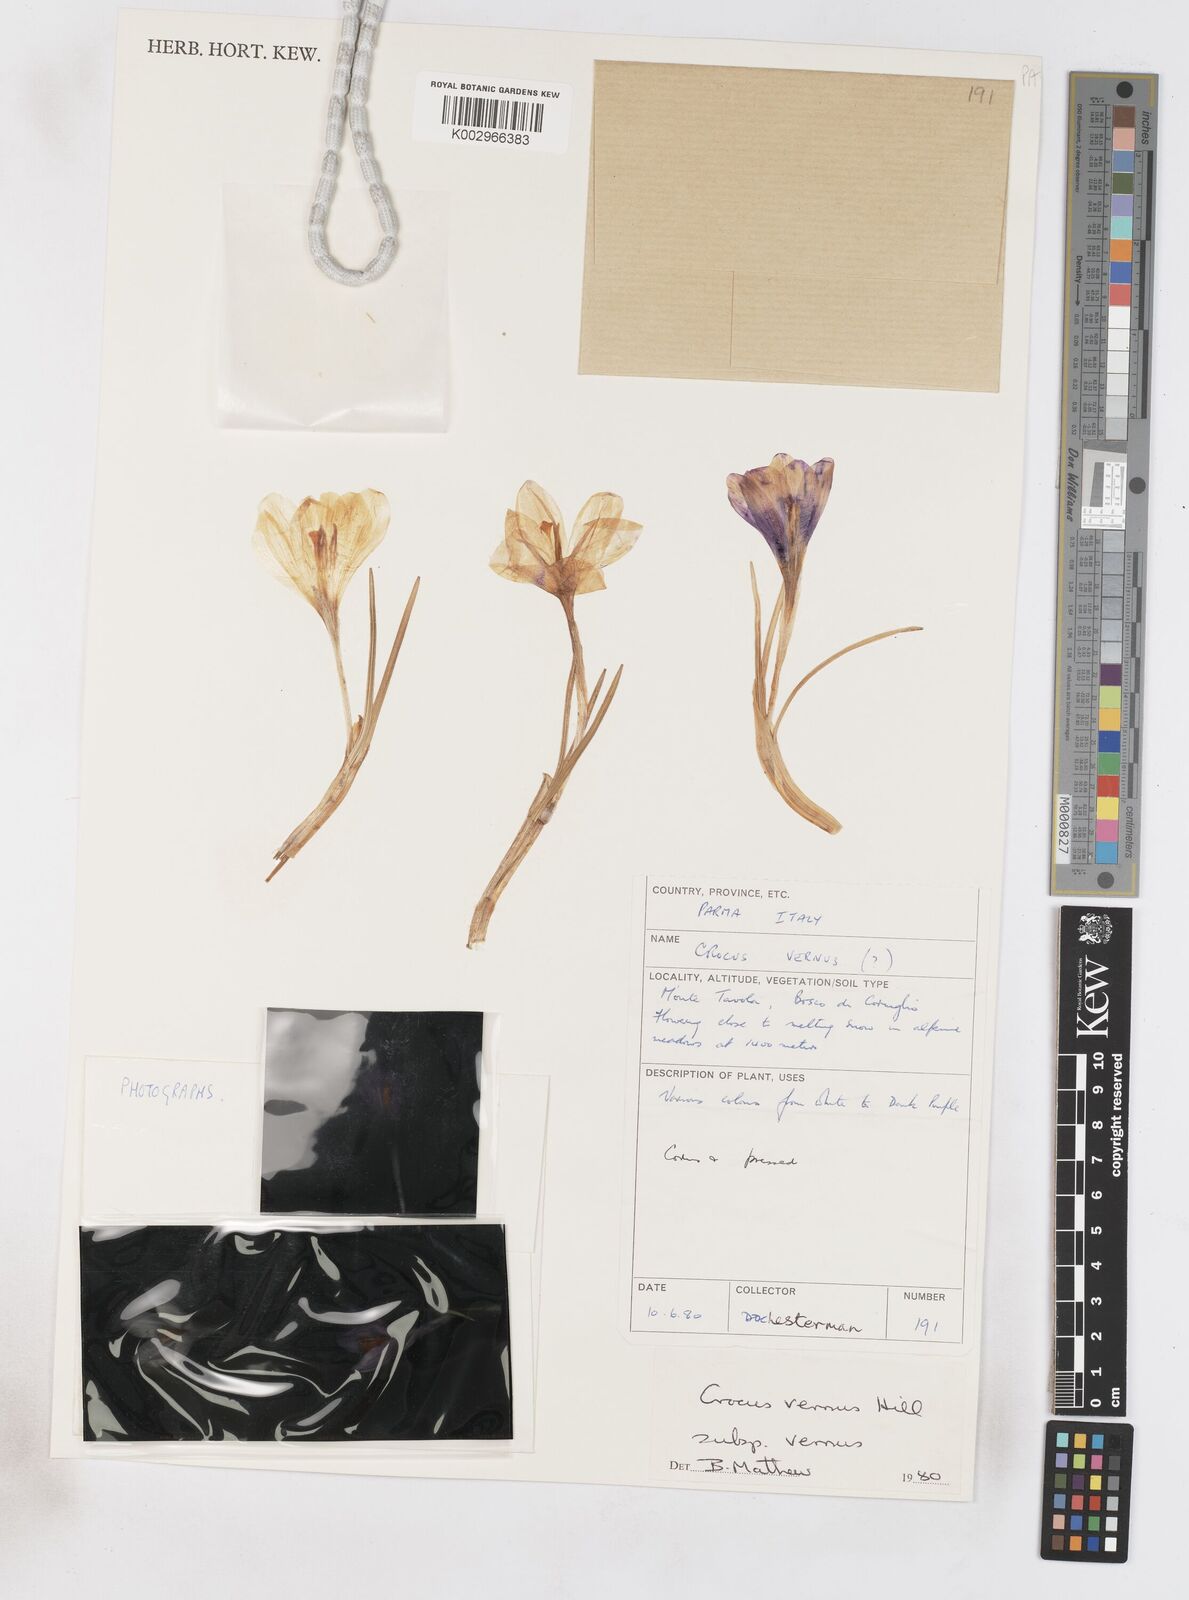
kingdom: Plantae
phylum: Tracheophyta
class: Liliopsida
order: Asparagales
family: Iridaceae
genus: Crocus
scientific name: Crocus vernus
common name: Spring crocus
